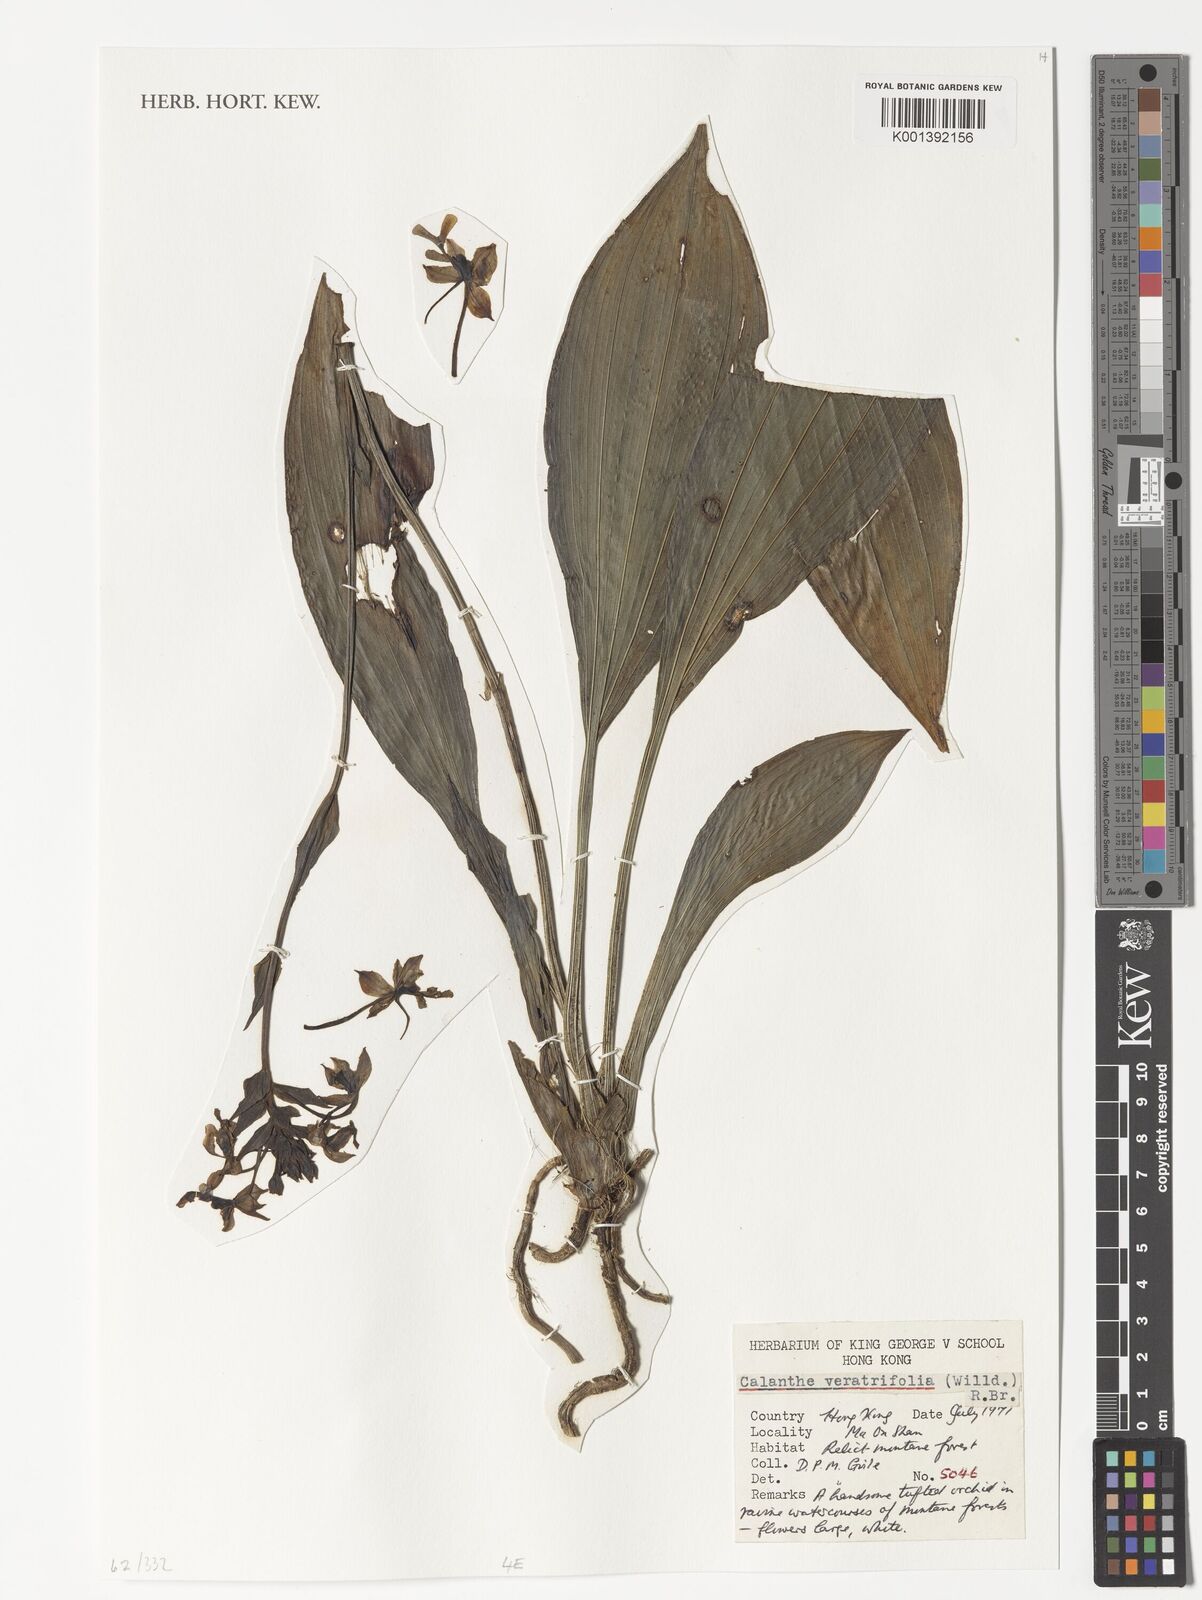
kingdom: Plantae
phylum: Tracheophyta
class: Liliopsida
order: Asparagales
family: Orchidaceae
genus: Calanthe
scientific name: Calanthe
